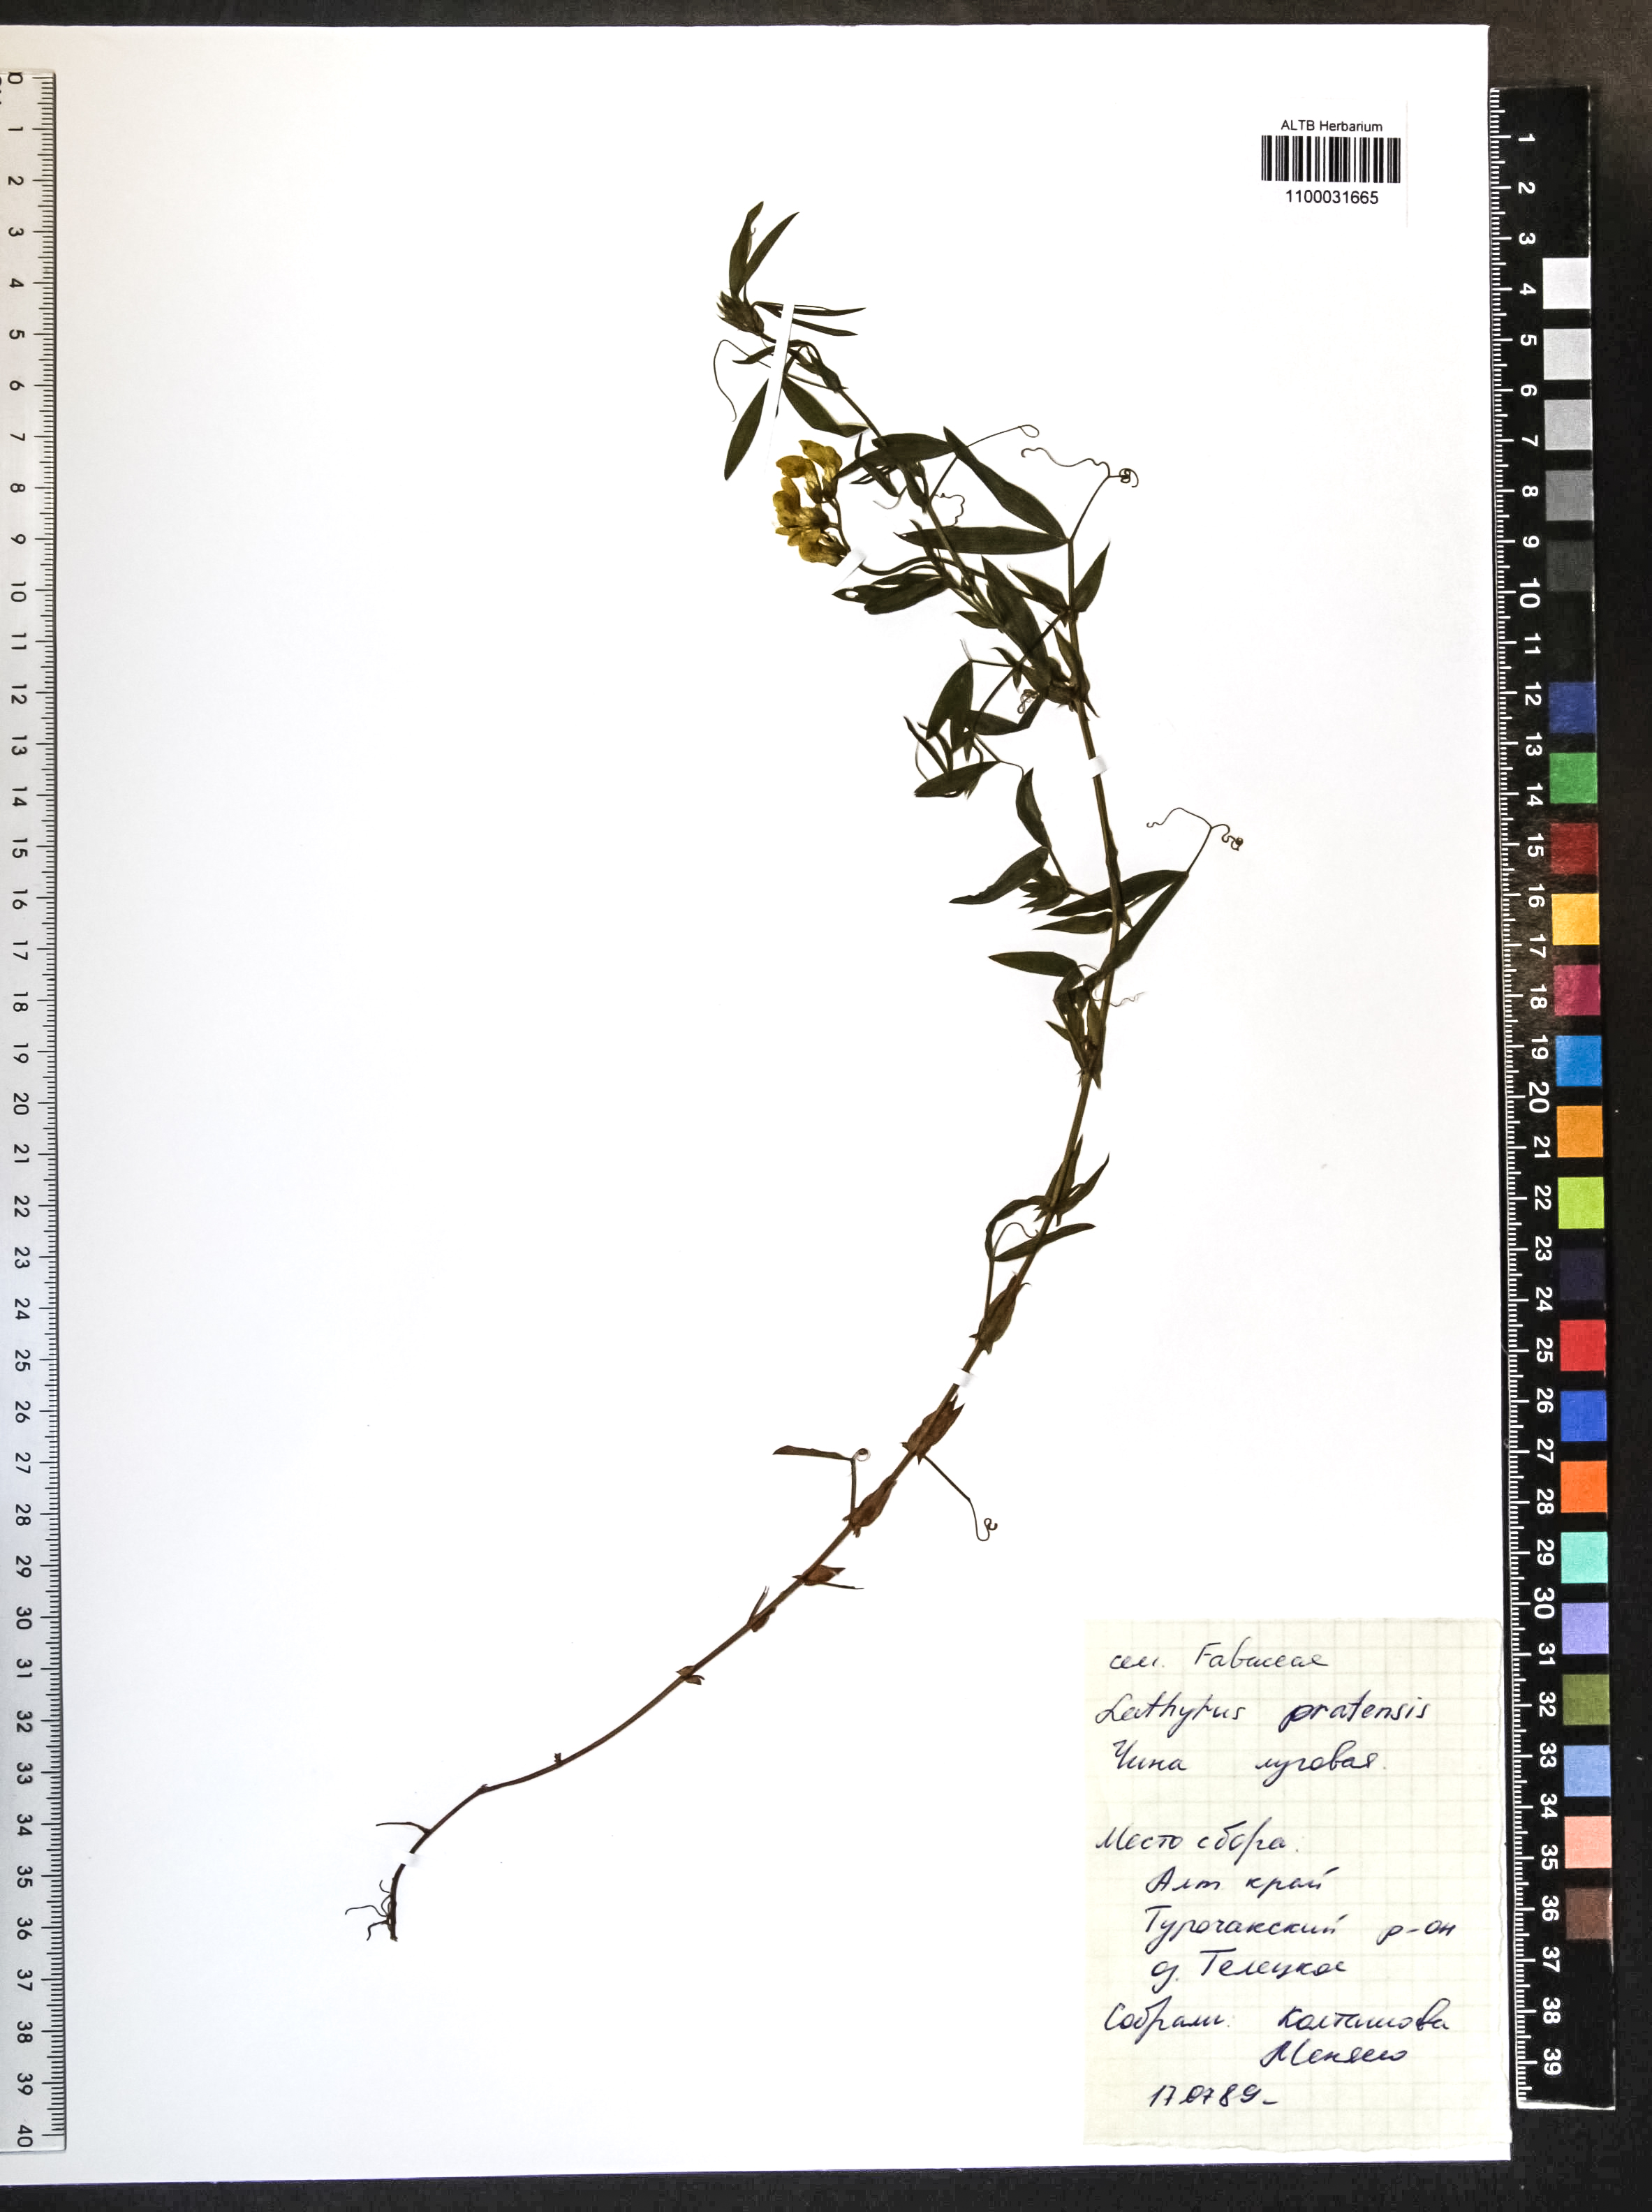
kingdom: Plantae
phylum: Tracheophyta
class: Magnoliopsida
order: Fabales
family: Fabaceae
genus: Lathyrus
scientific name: Lathyrus pratensis
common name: Meadow vetchling
